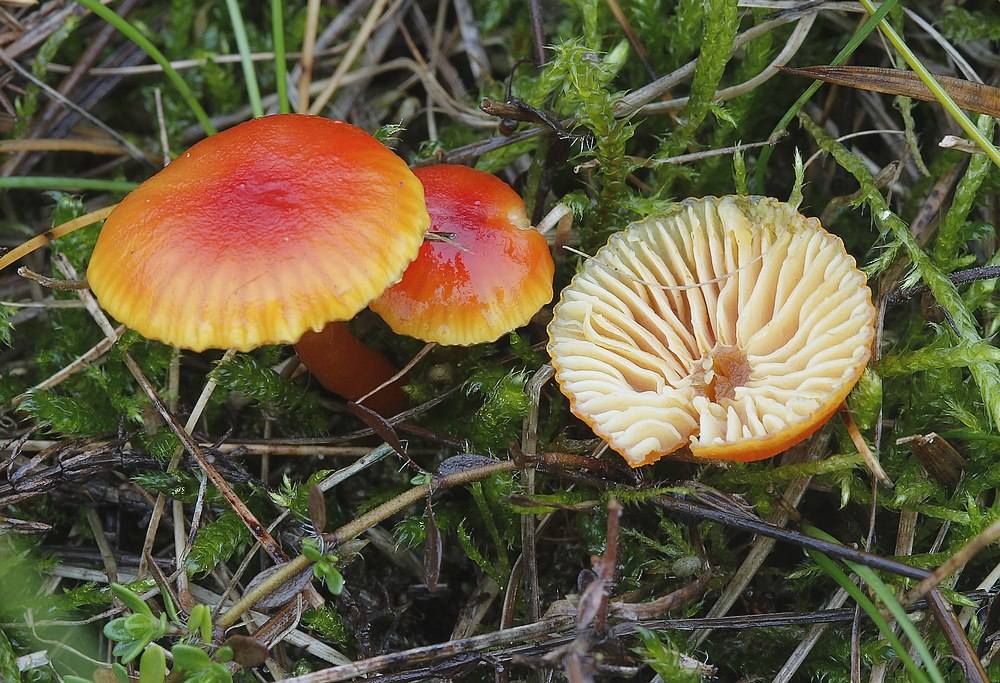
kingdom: Fungi
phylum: Basidiomycota
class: Agaricomycetes
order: Agaricales
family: Hygrophoraceae
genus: Hygrocybe
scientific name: Hygrocybe insipida
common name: liden vokshat
